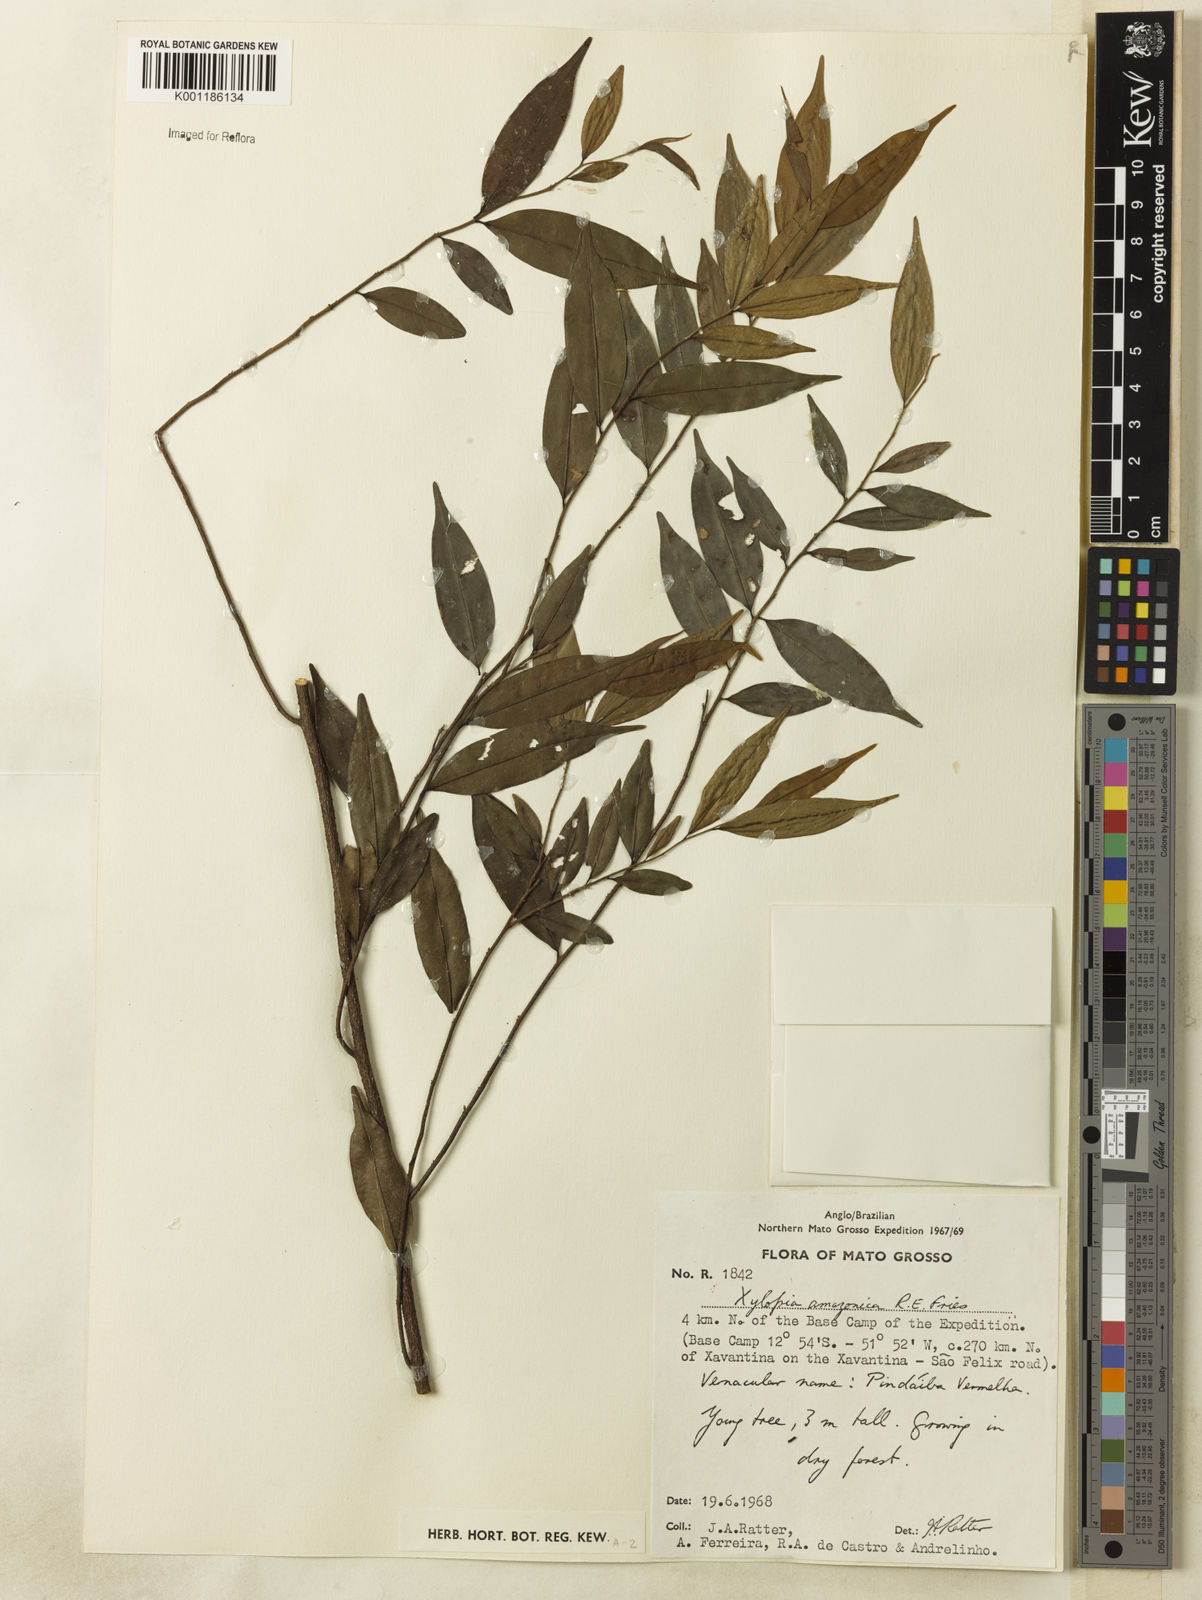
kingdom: Plantae
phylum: Tracheophyta
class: Magnoliopsida
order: Magnoliales
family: Annonaceae
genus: Xylopia
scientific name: Xylopia amazonica
